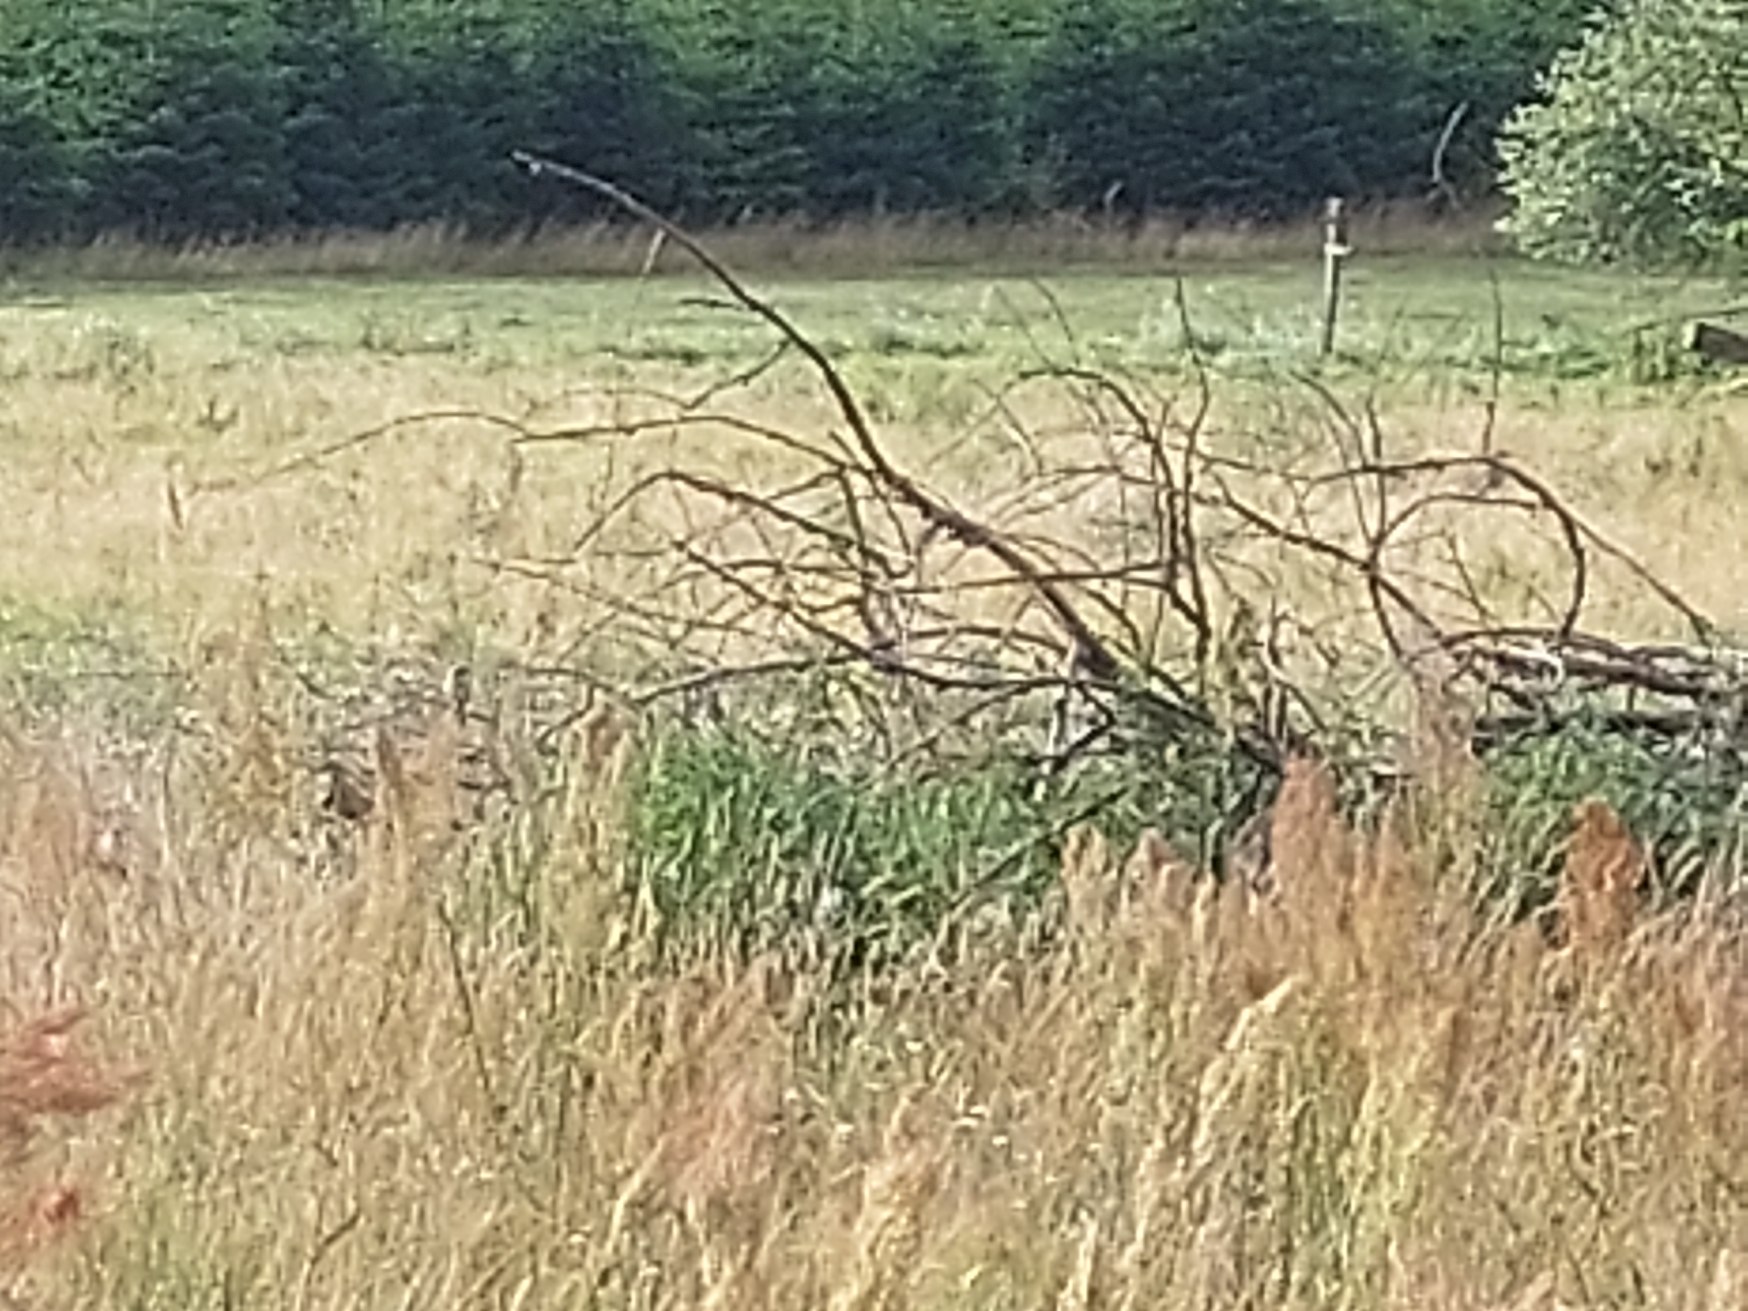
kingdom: Animalia
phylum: Chordata
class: Aves
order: Passeriformes
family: Laniidae
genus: Lanius
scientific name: Lanius collurio
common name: Rødrygget tornskade
